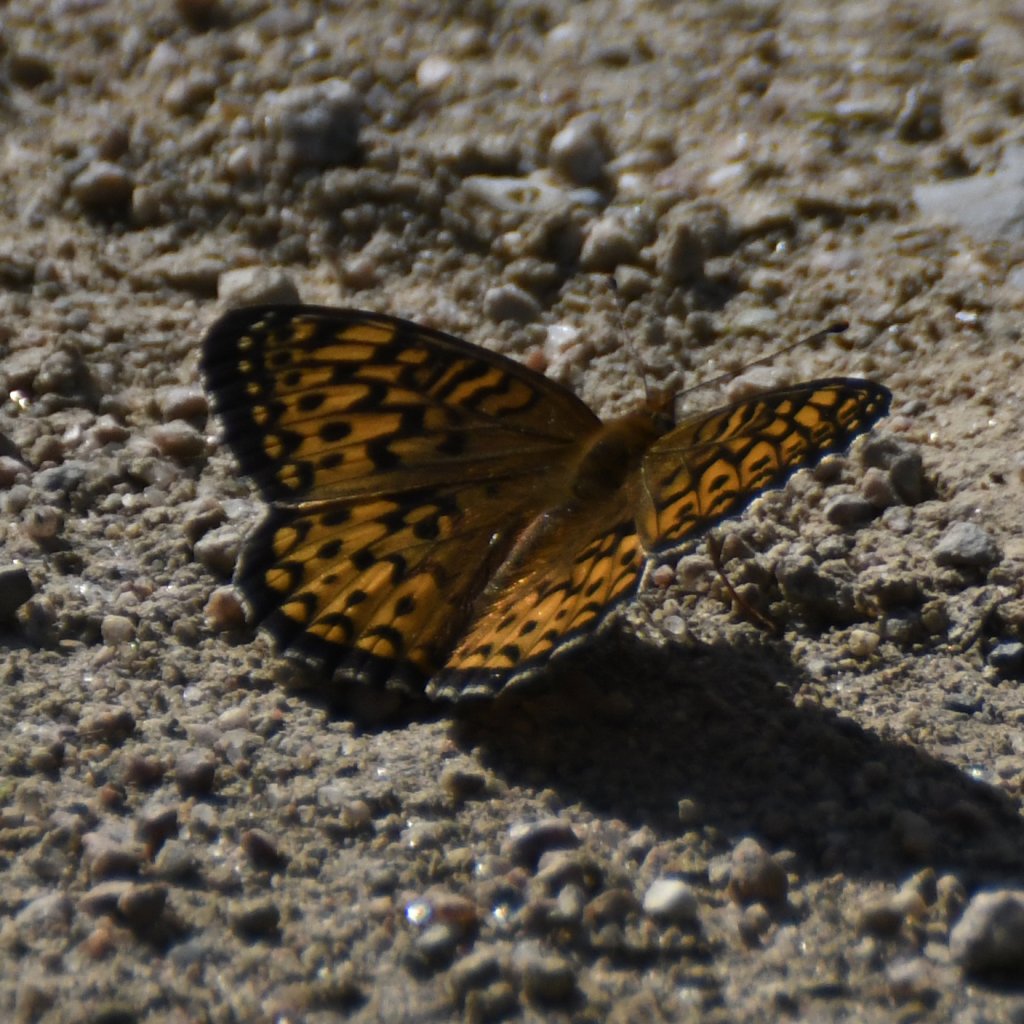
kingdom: Animalia
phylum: Arthropoda
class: Insecta
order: Lepidoptera
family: Nymphalidae
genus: Speyeria
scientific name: Speyeria atlantis
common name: Atlantis Fritillary
